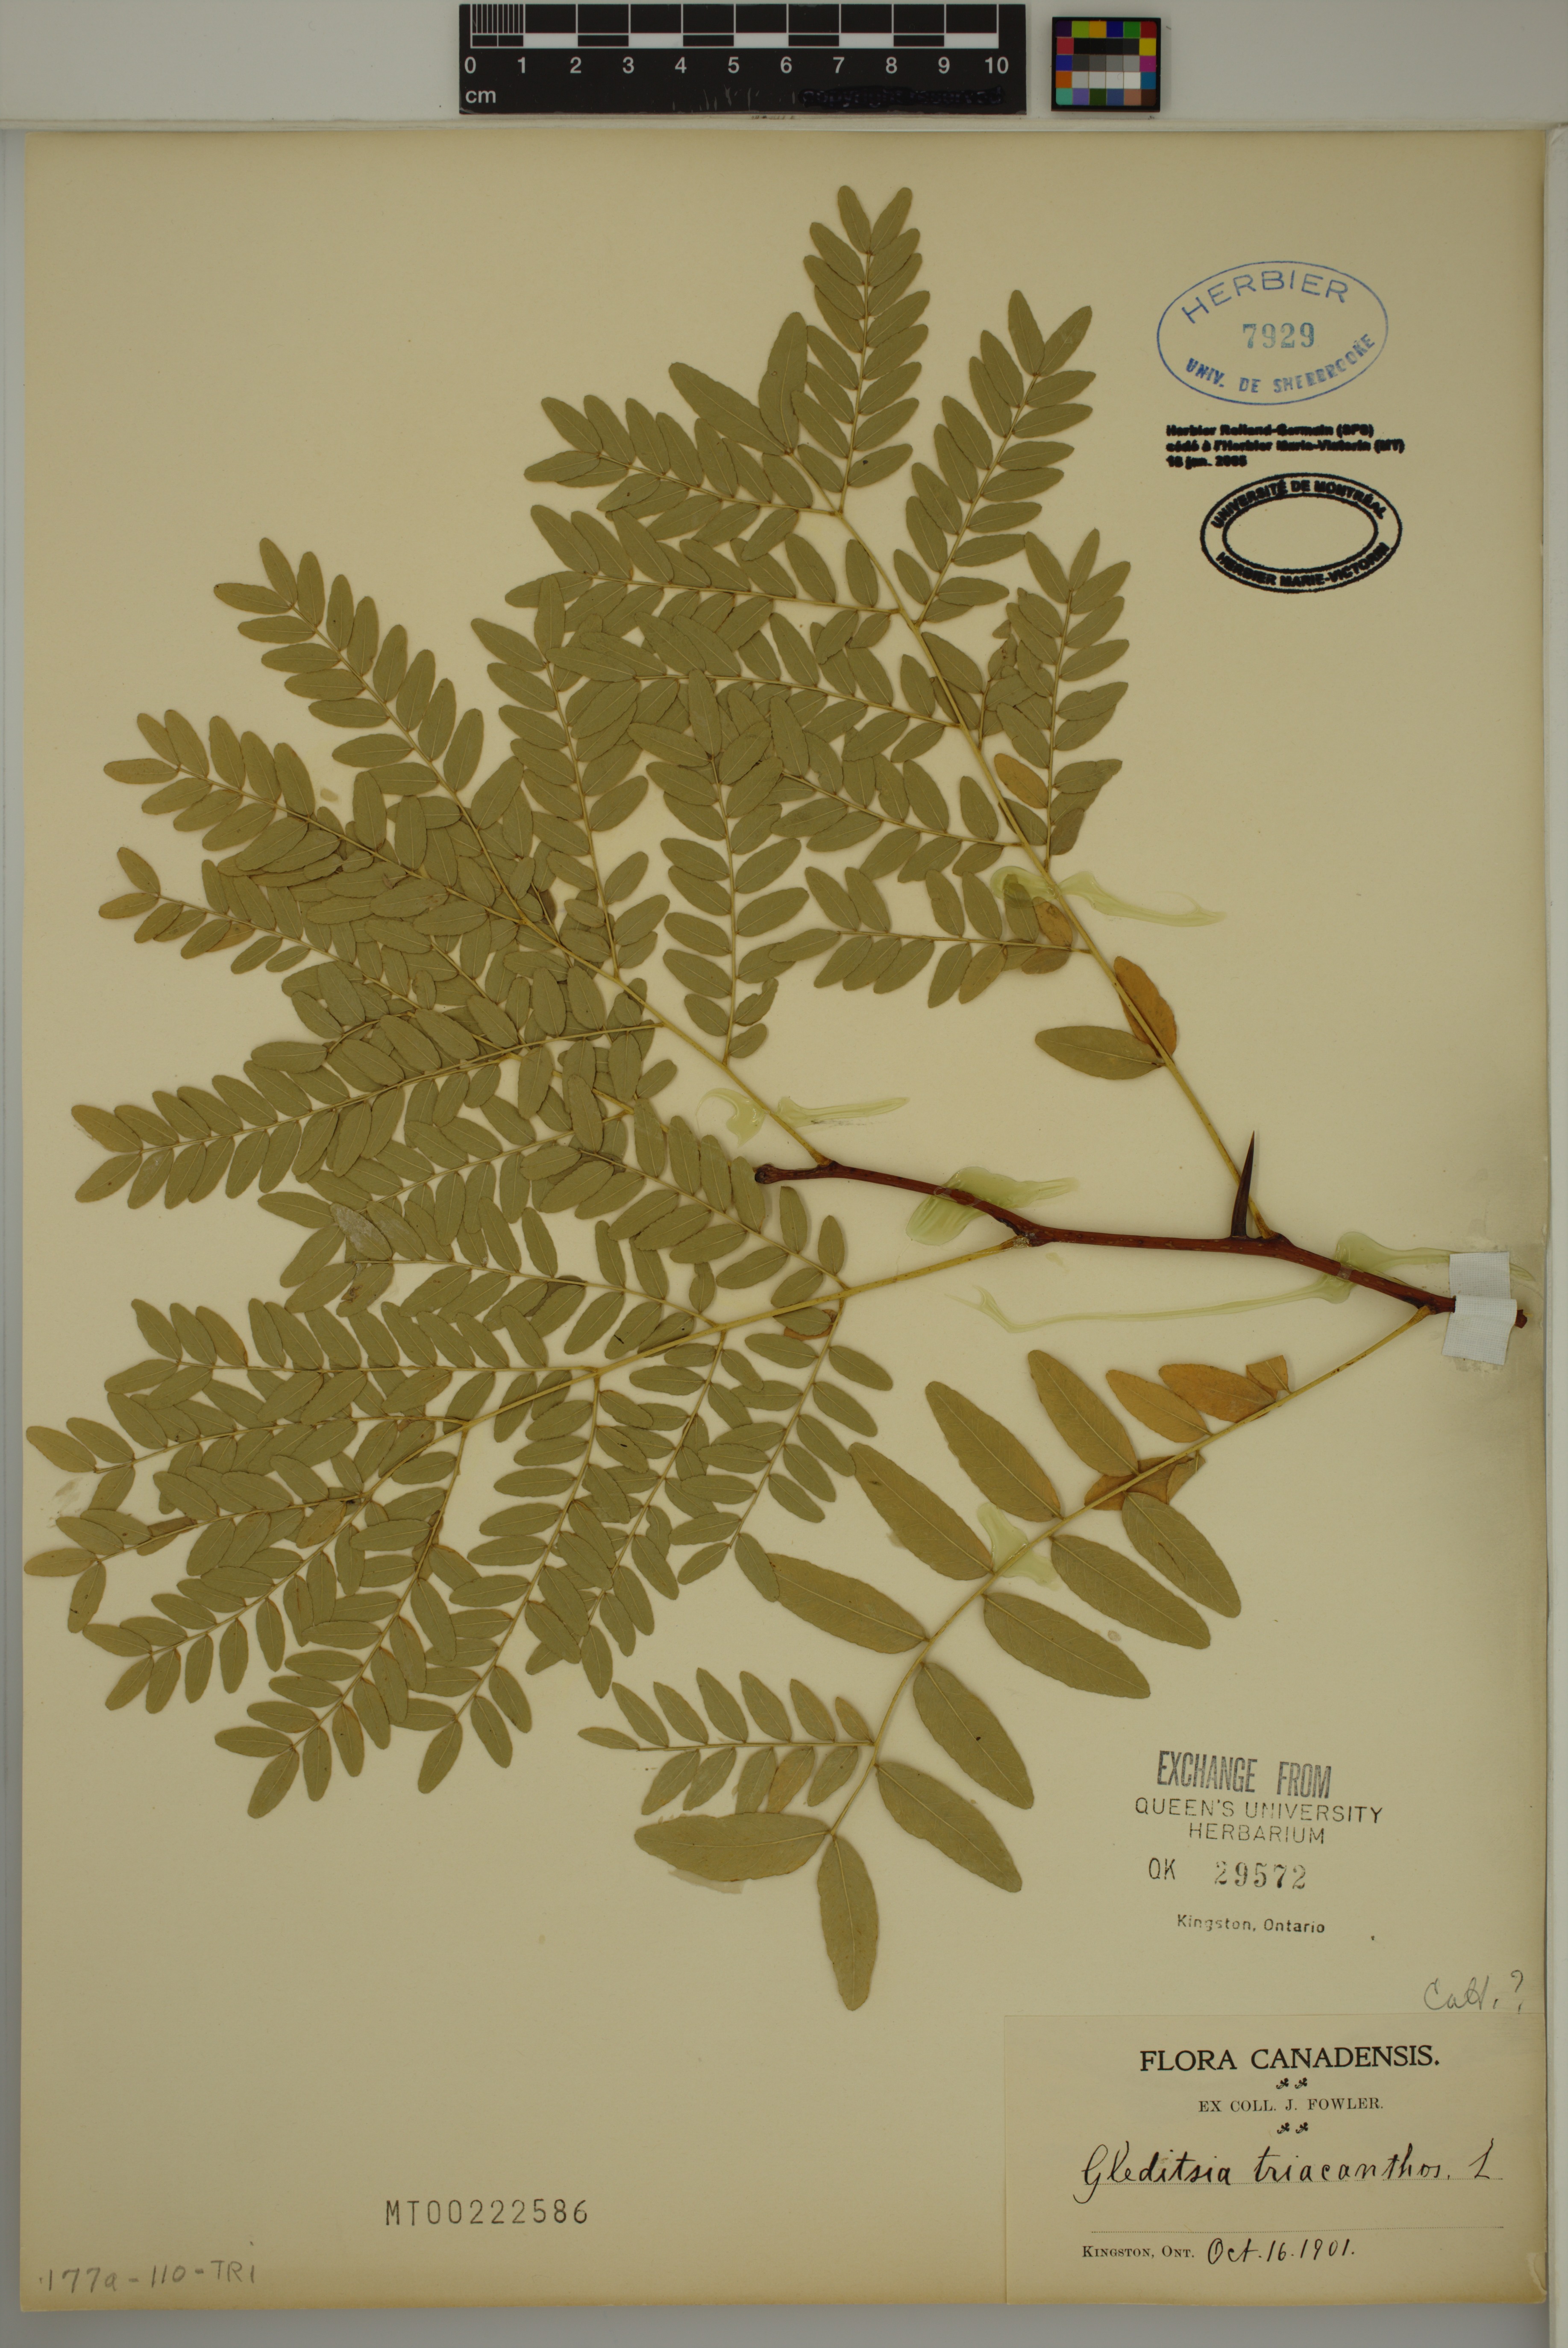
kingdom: Plantae
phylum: Tracheophyta
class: Magnoliopsida
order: Fabales
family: Fabaceae
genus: Gleditsia
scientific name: Gleditsia triacanthos
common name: Common honeylocust
